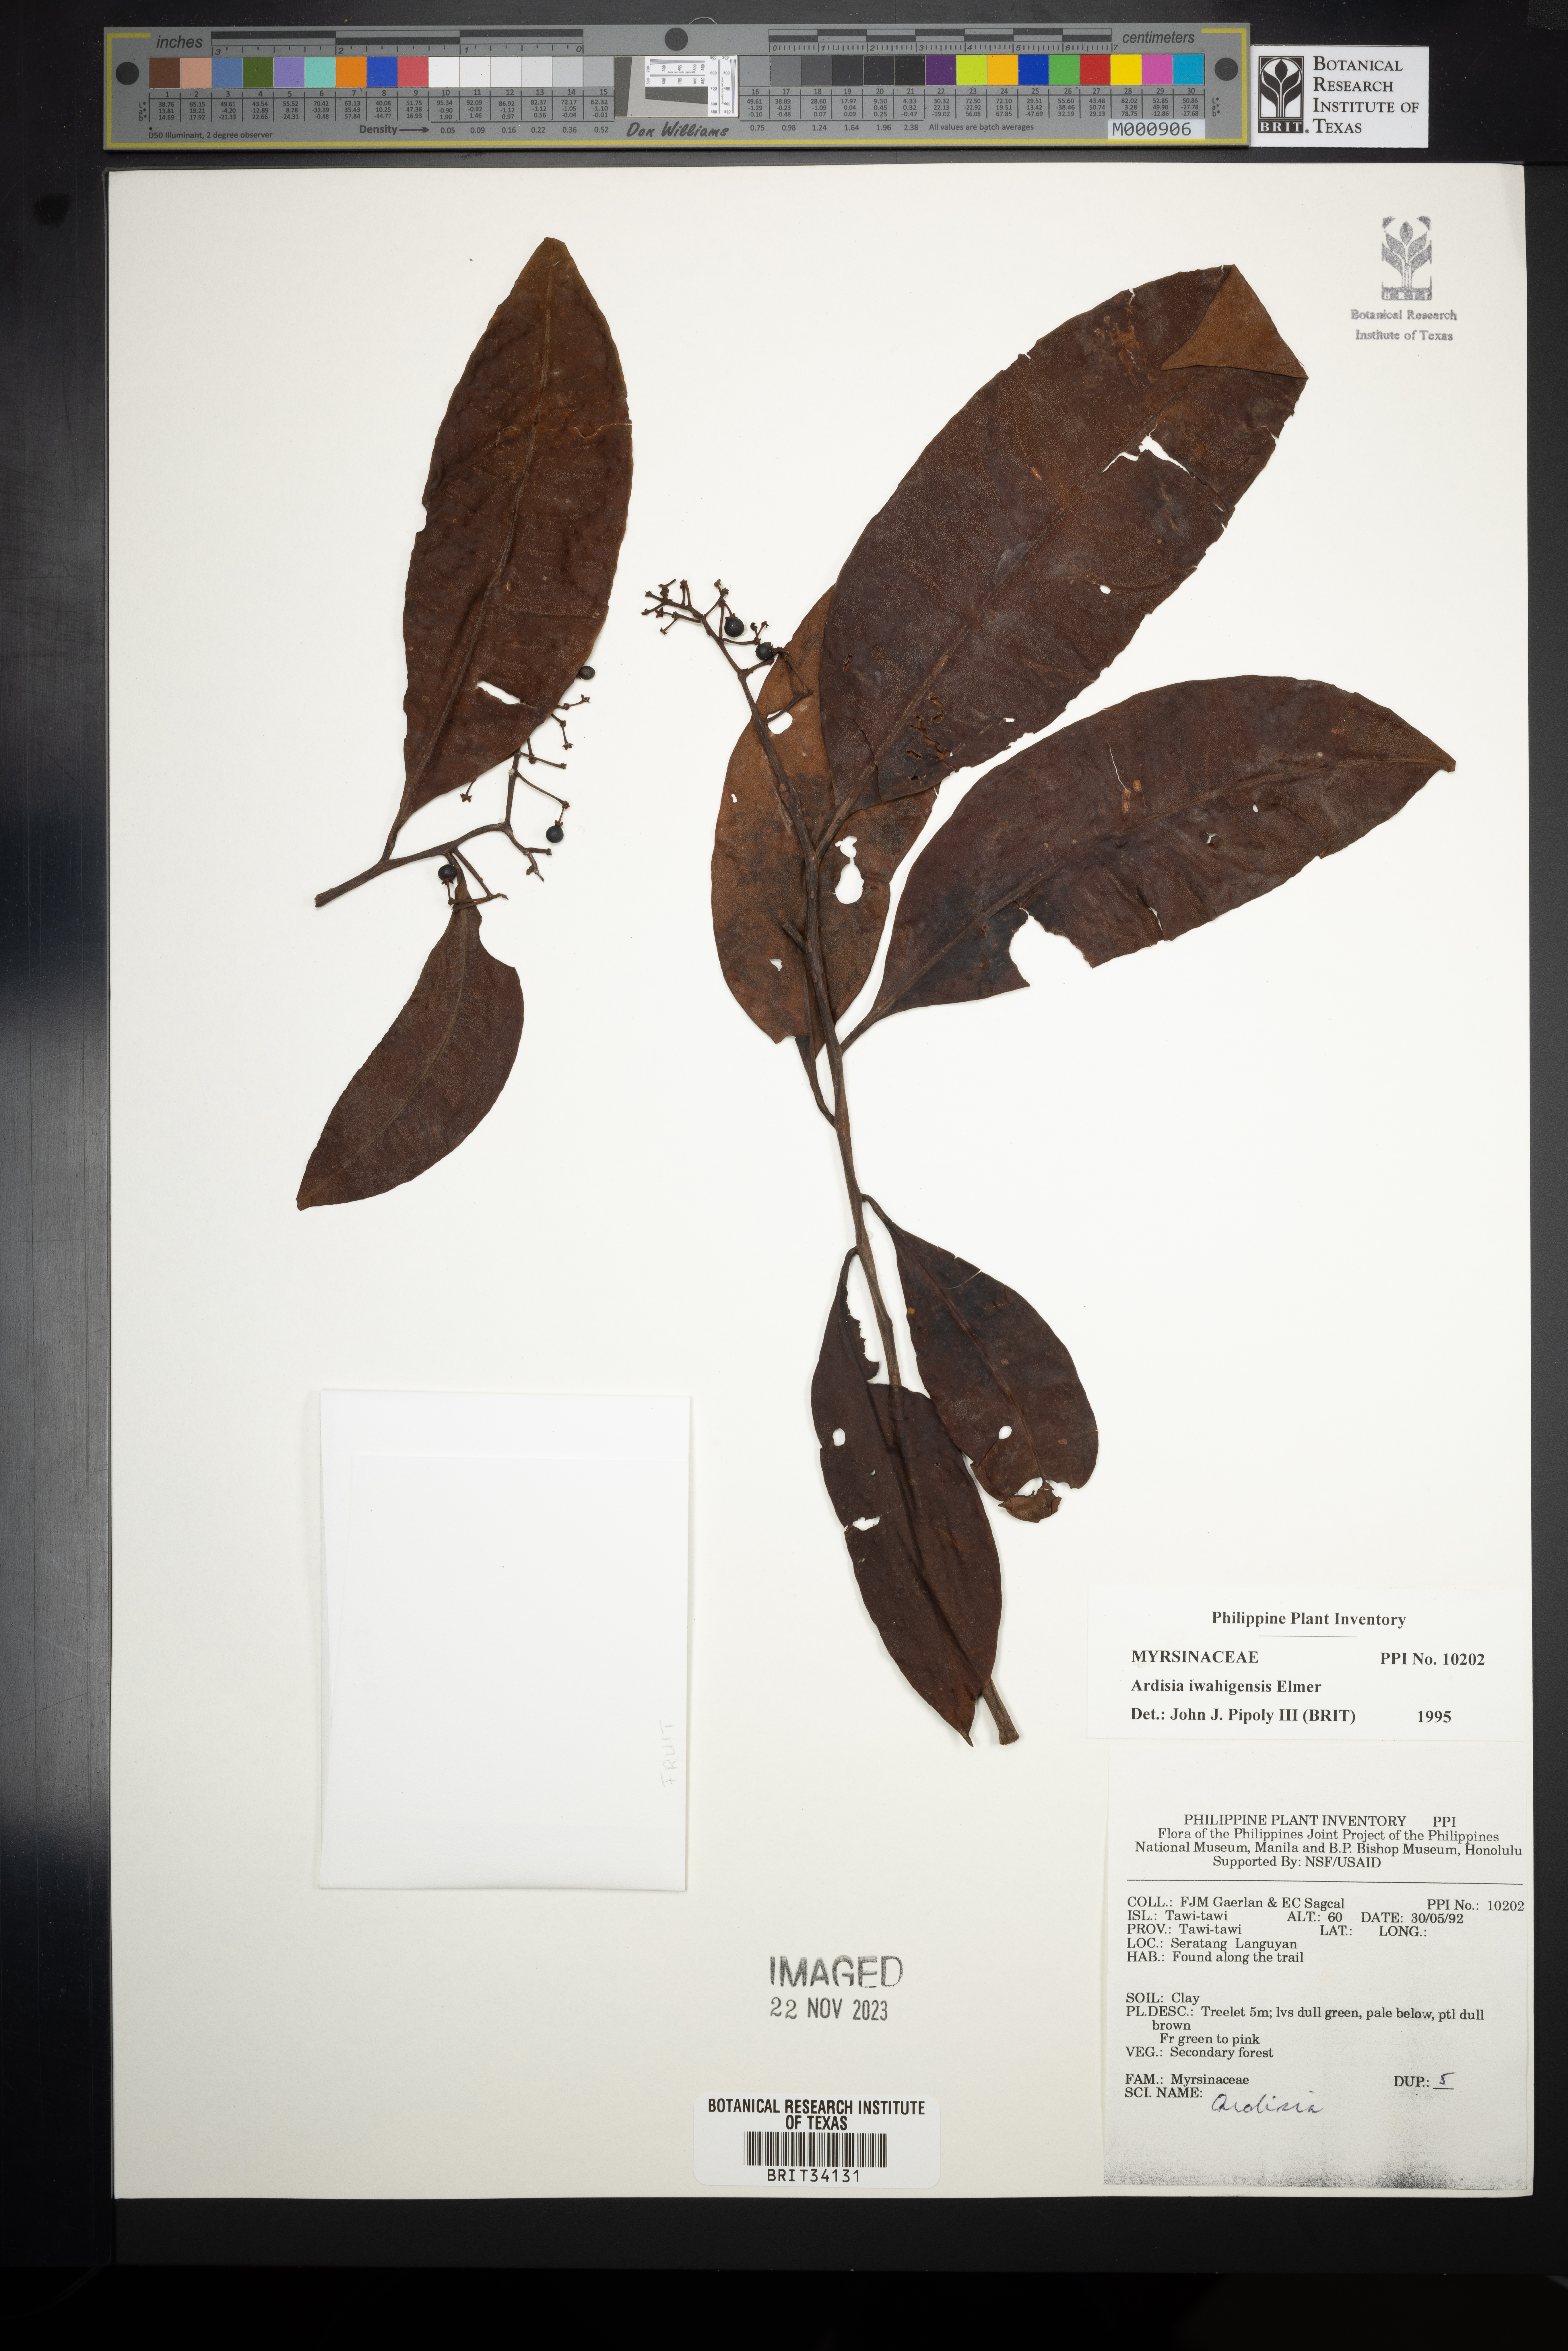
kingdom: Plantae
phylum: Tracheophyta
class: Magnoliopsida
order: Ericales
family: Primulaceae
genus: Ardisia
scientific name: Ardisia iwahigensis
